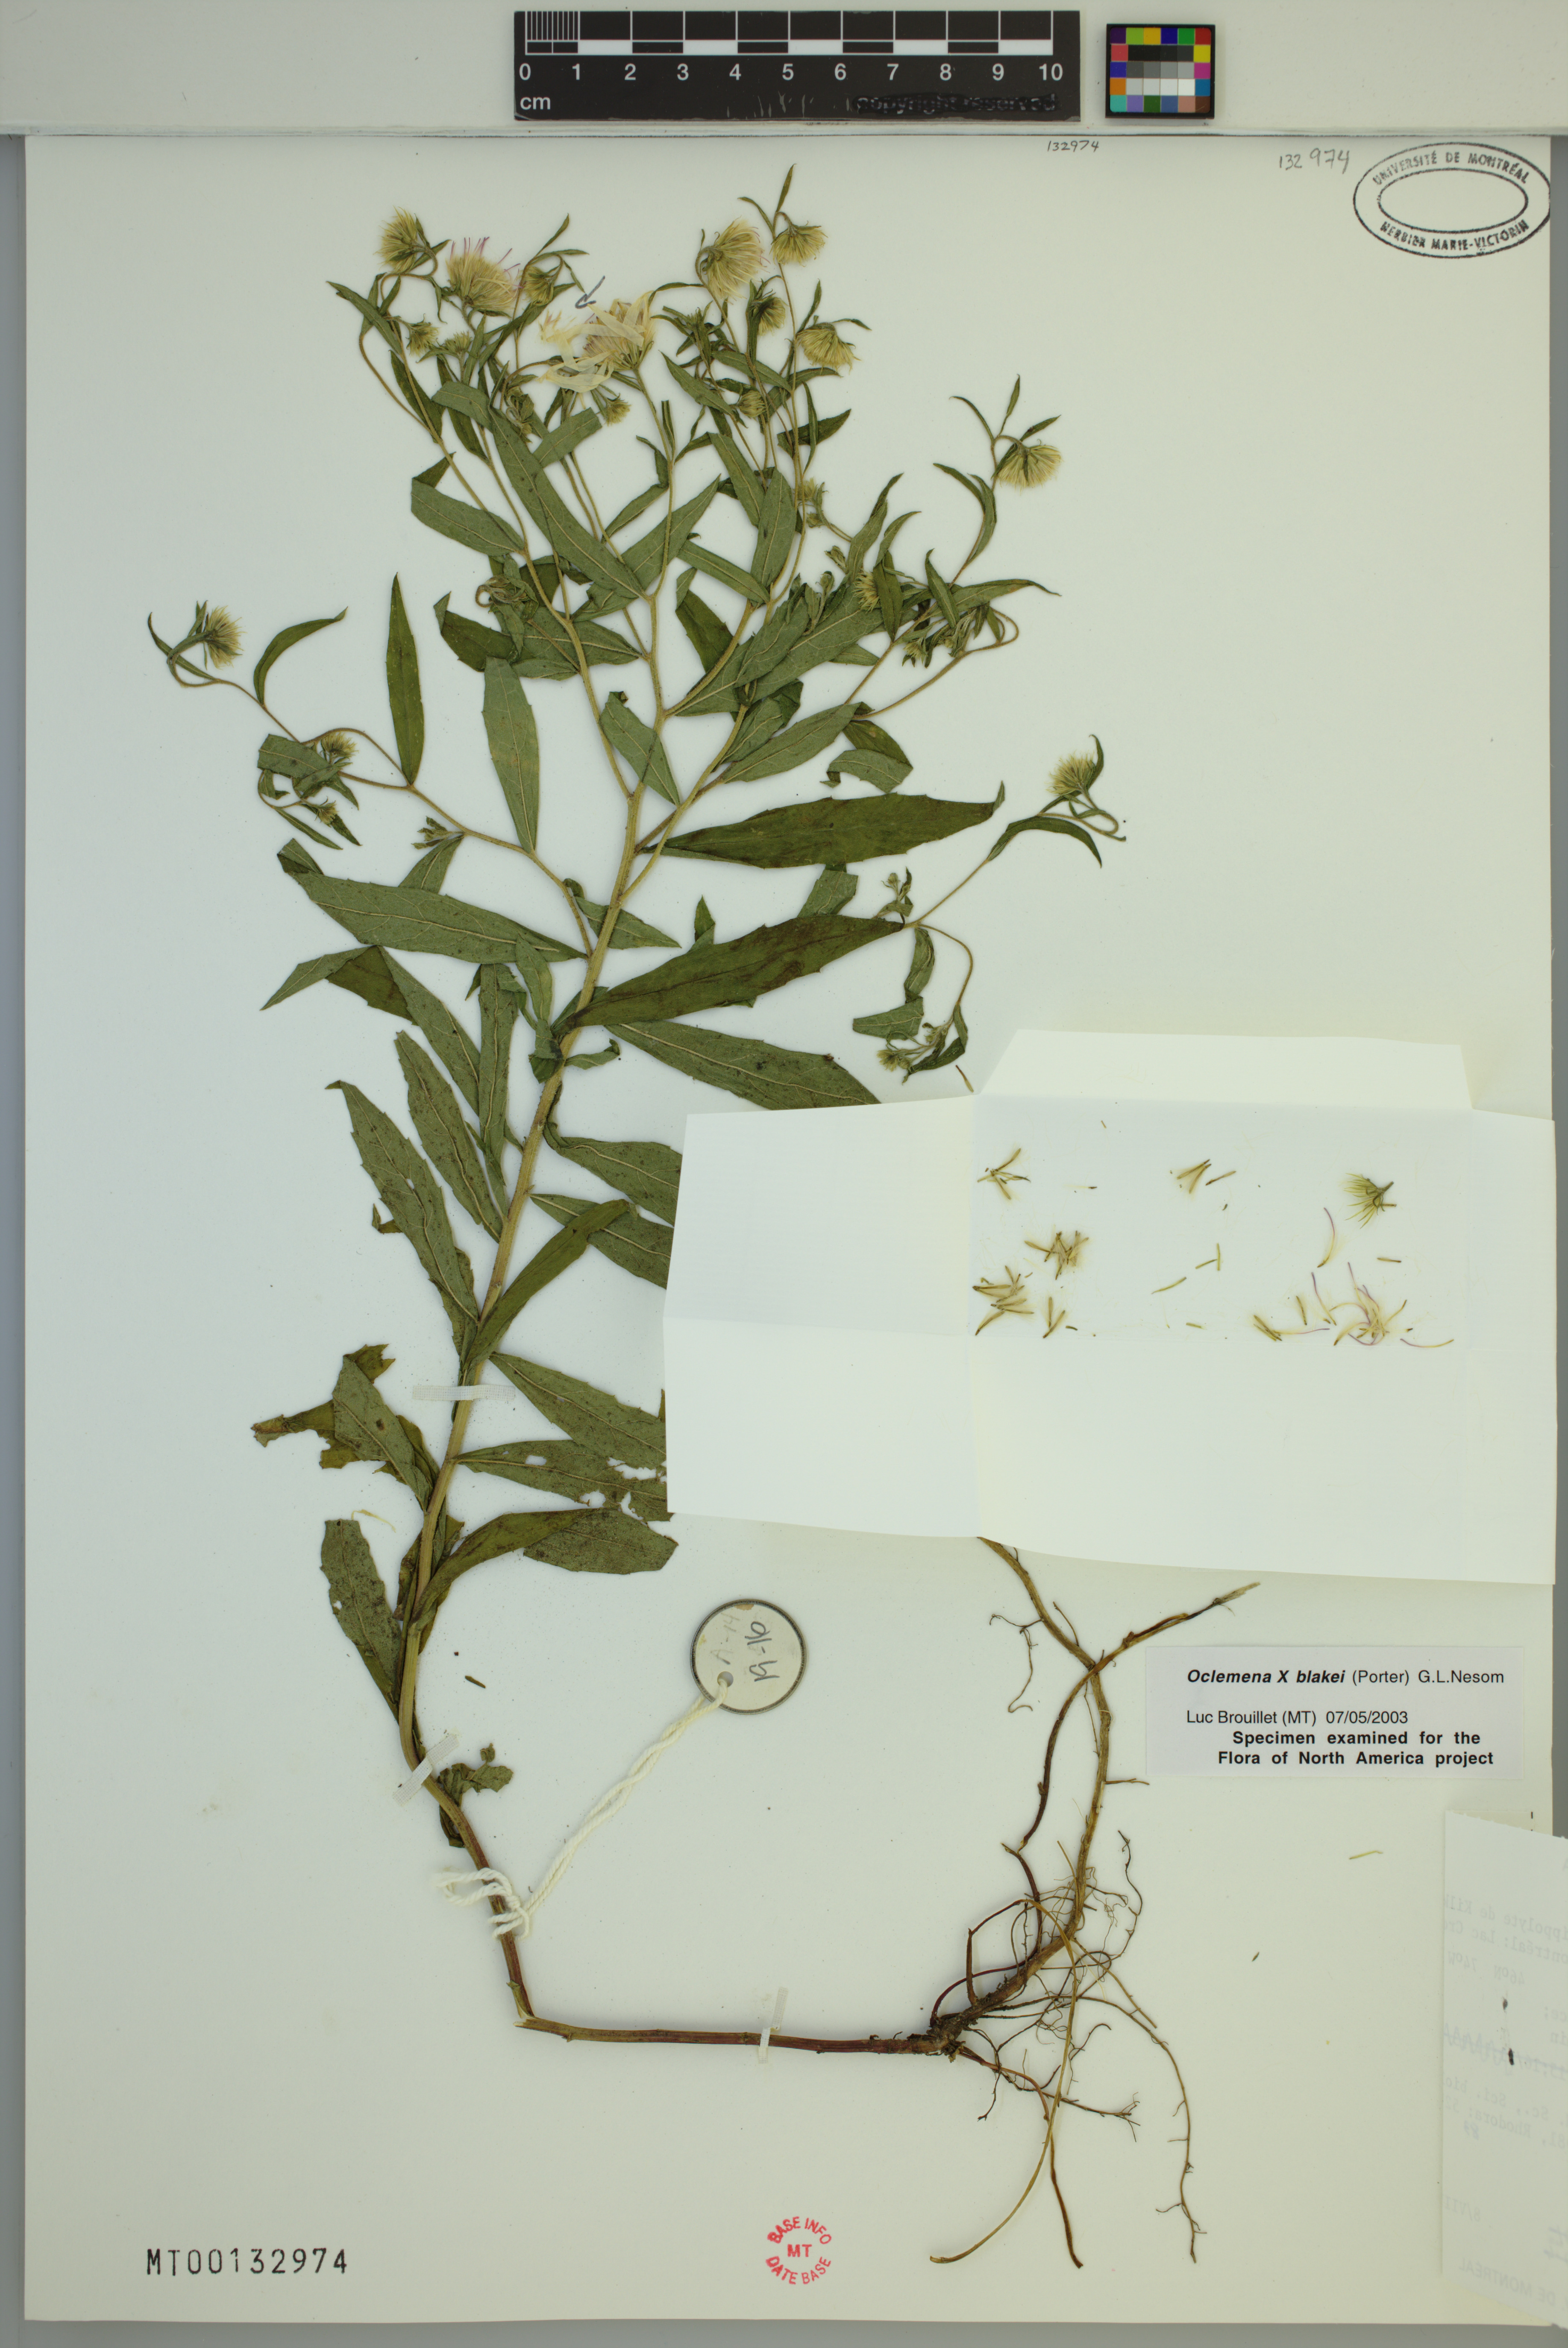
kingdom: Plantae
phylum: Tracheophyta
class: Magnoliopsida
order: Asterales
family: Asteraceae
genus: Oclemena
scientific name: Oclemena blakei
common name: Blake's aster
